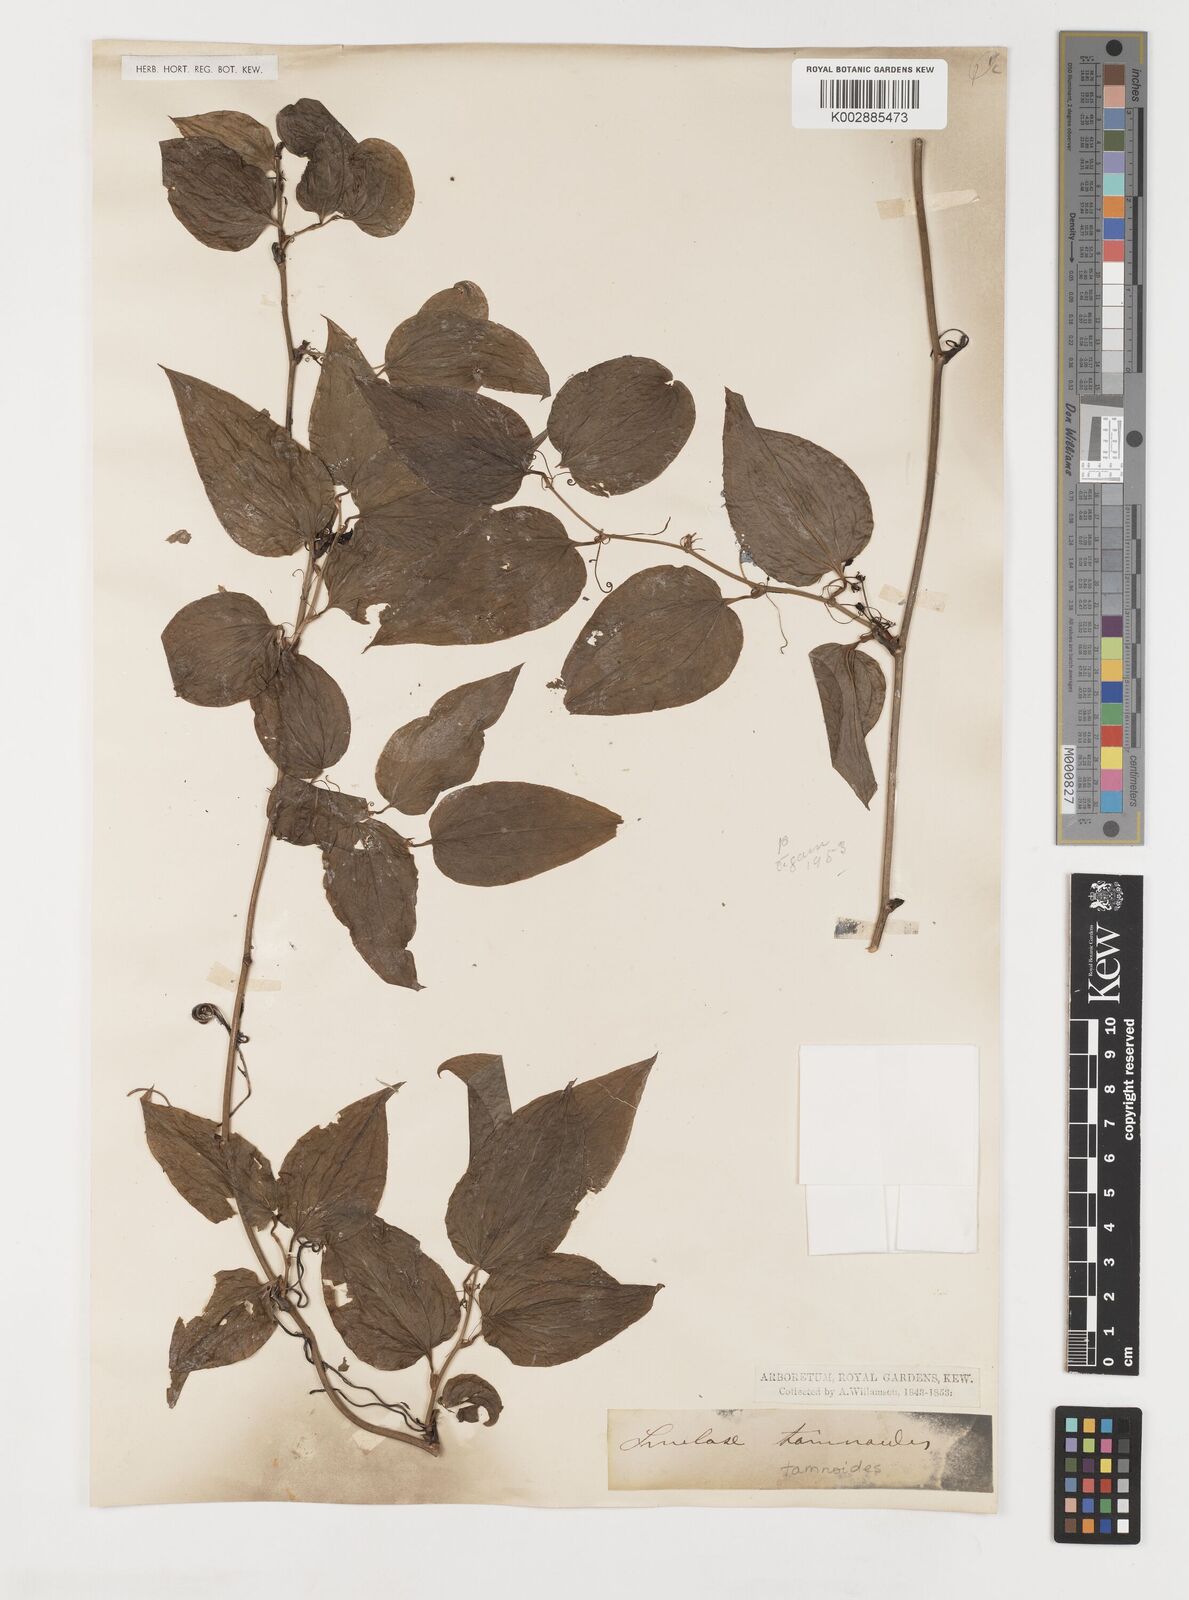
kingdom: Plantae
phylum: Tracheophyta
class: Liliopsida
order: Liliales
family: Smilacaceae
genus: Smilax
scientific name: Smilax pseudochina
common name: False chinaroot
